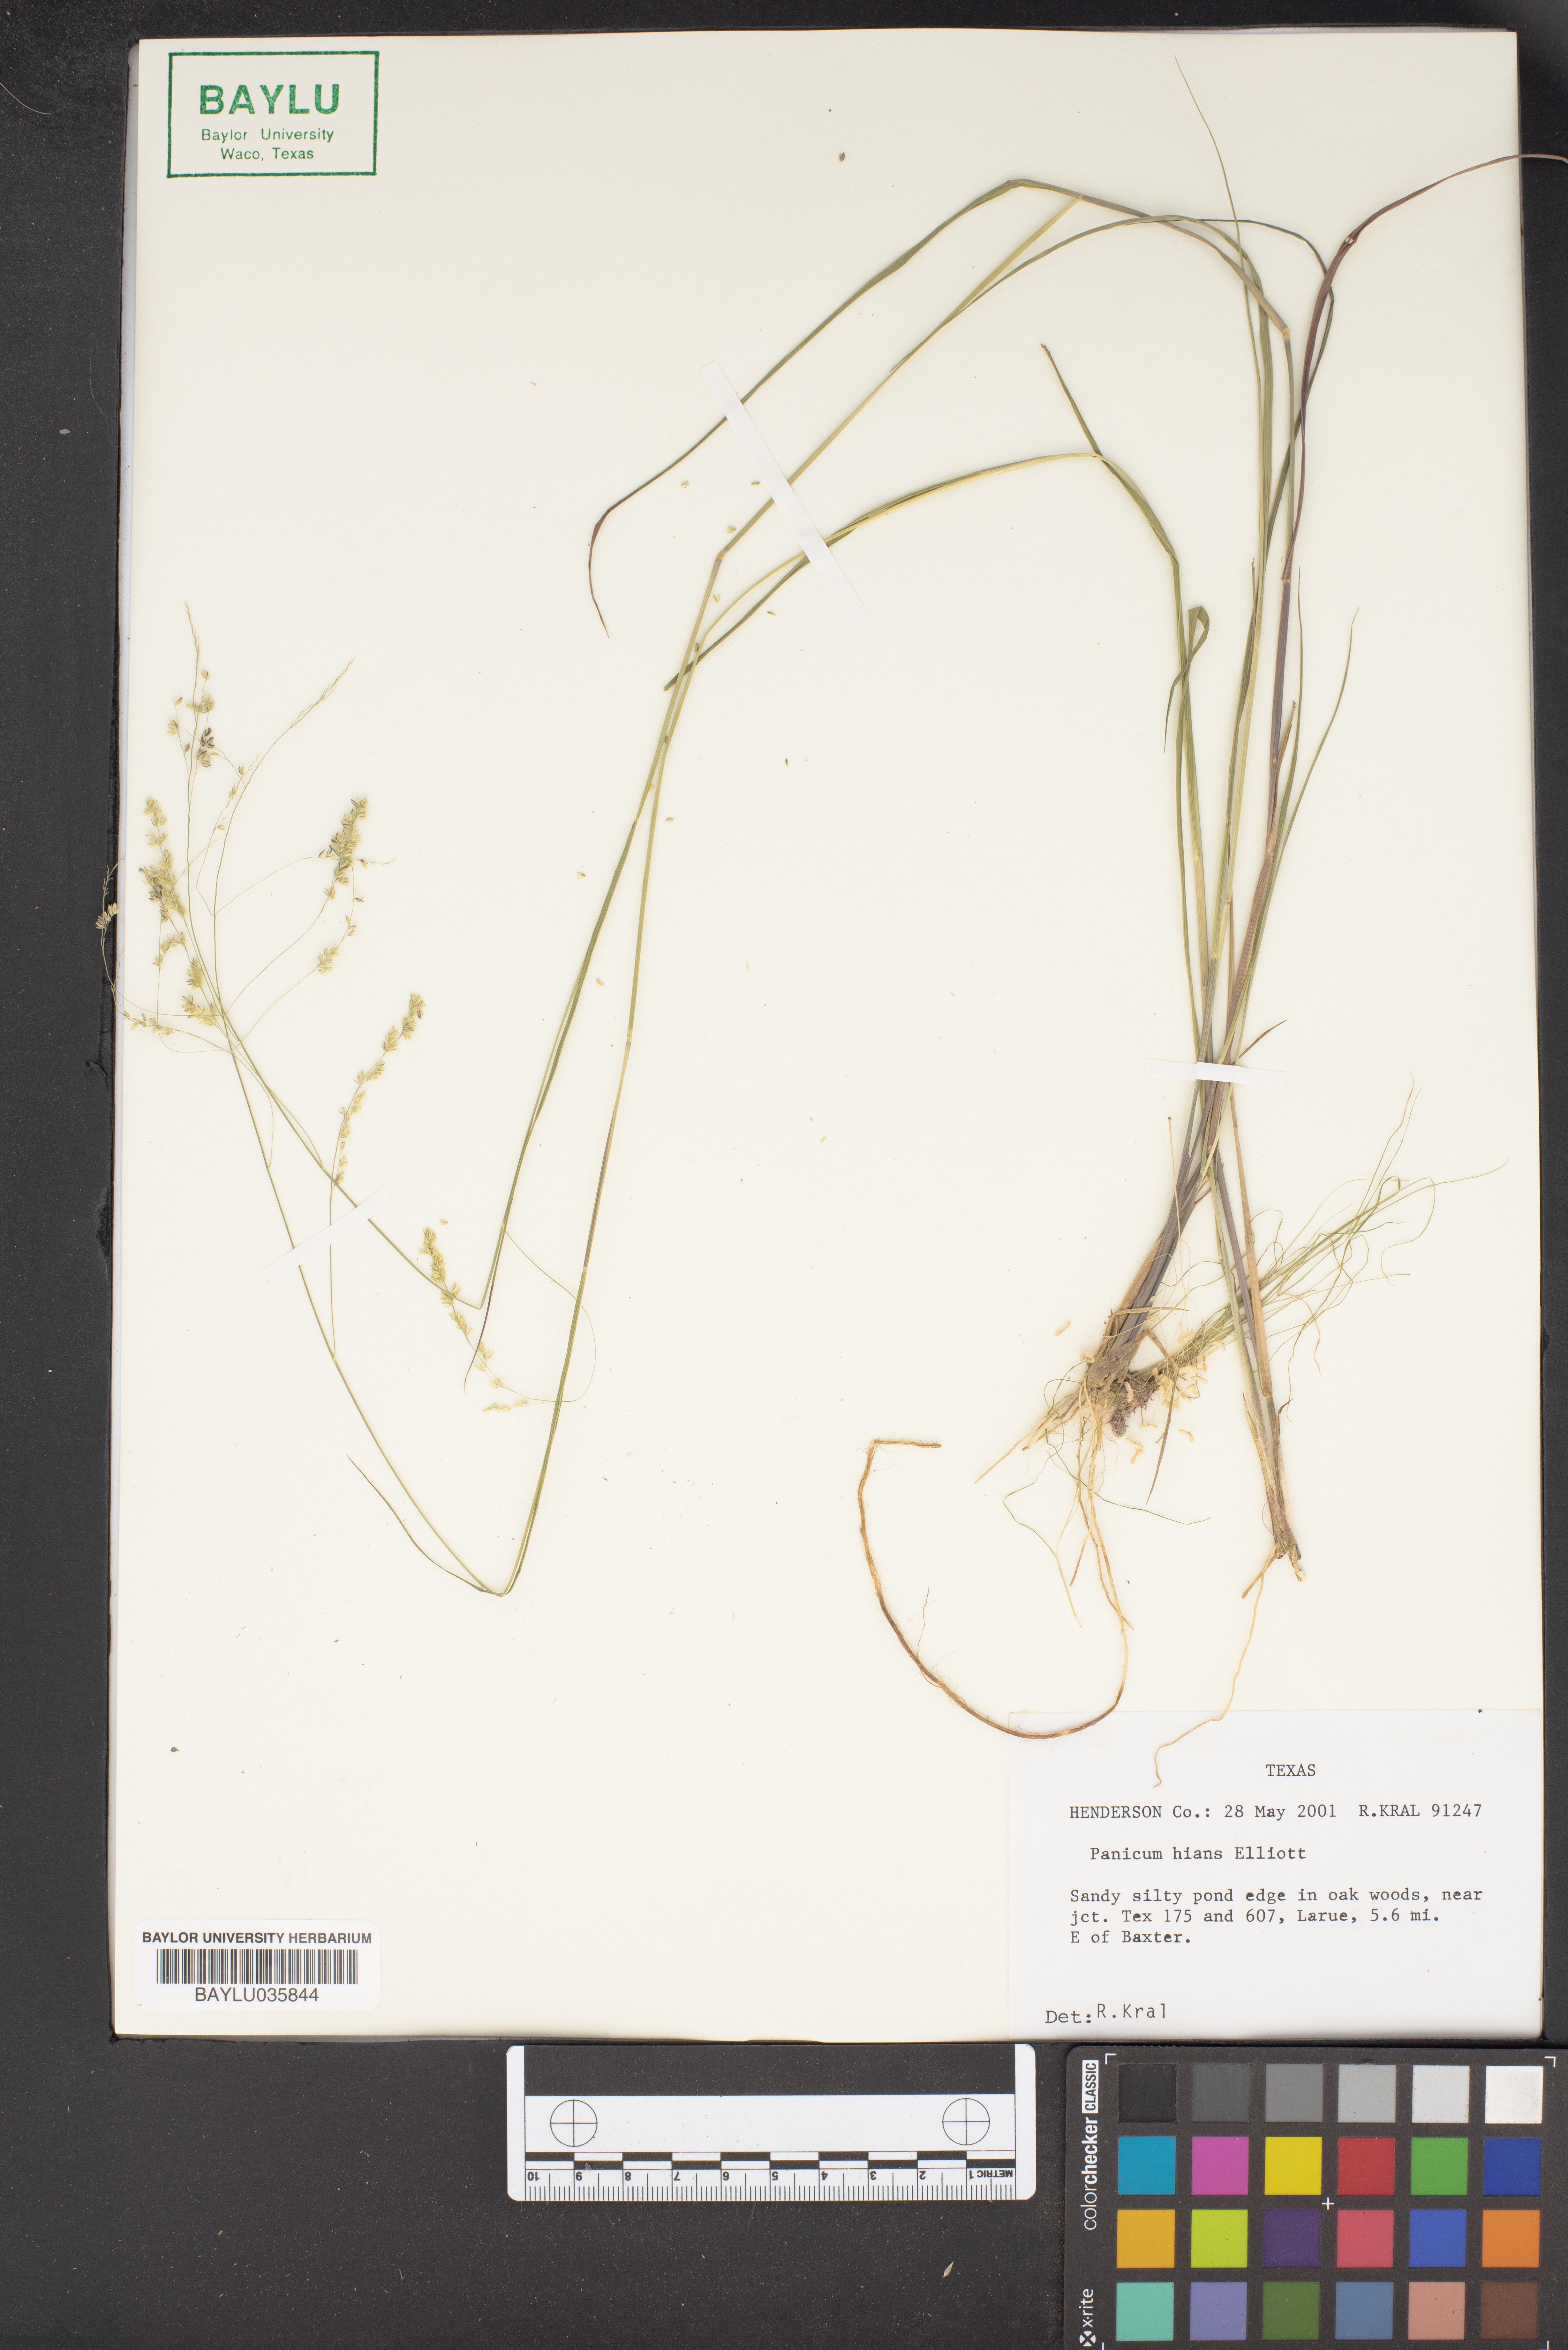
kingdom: Plantae
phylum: Tracheophyta
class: Liliopsida
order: Poales
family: Poaceae
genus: Coleataenia
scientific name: Coleataenia stenodes
